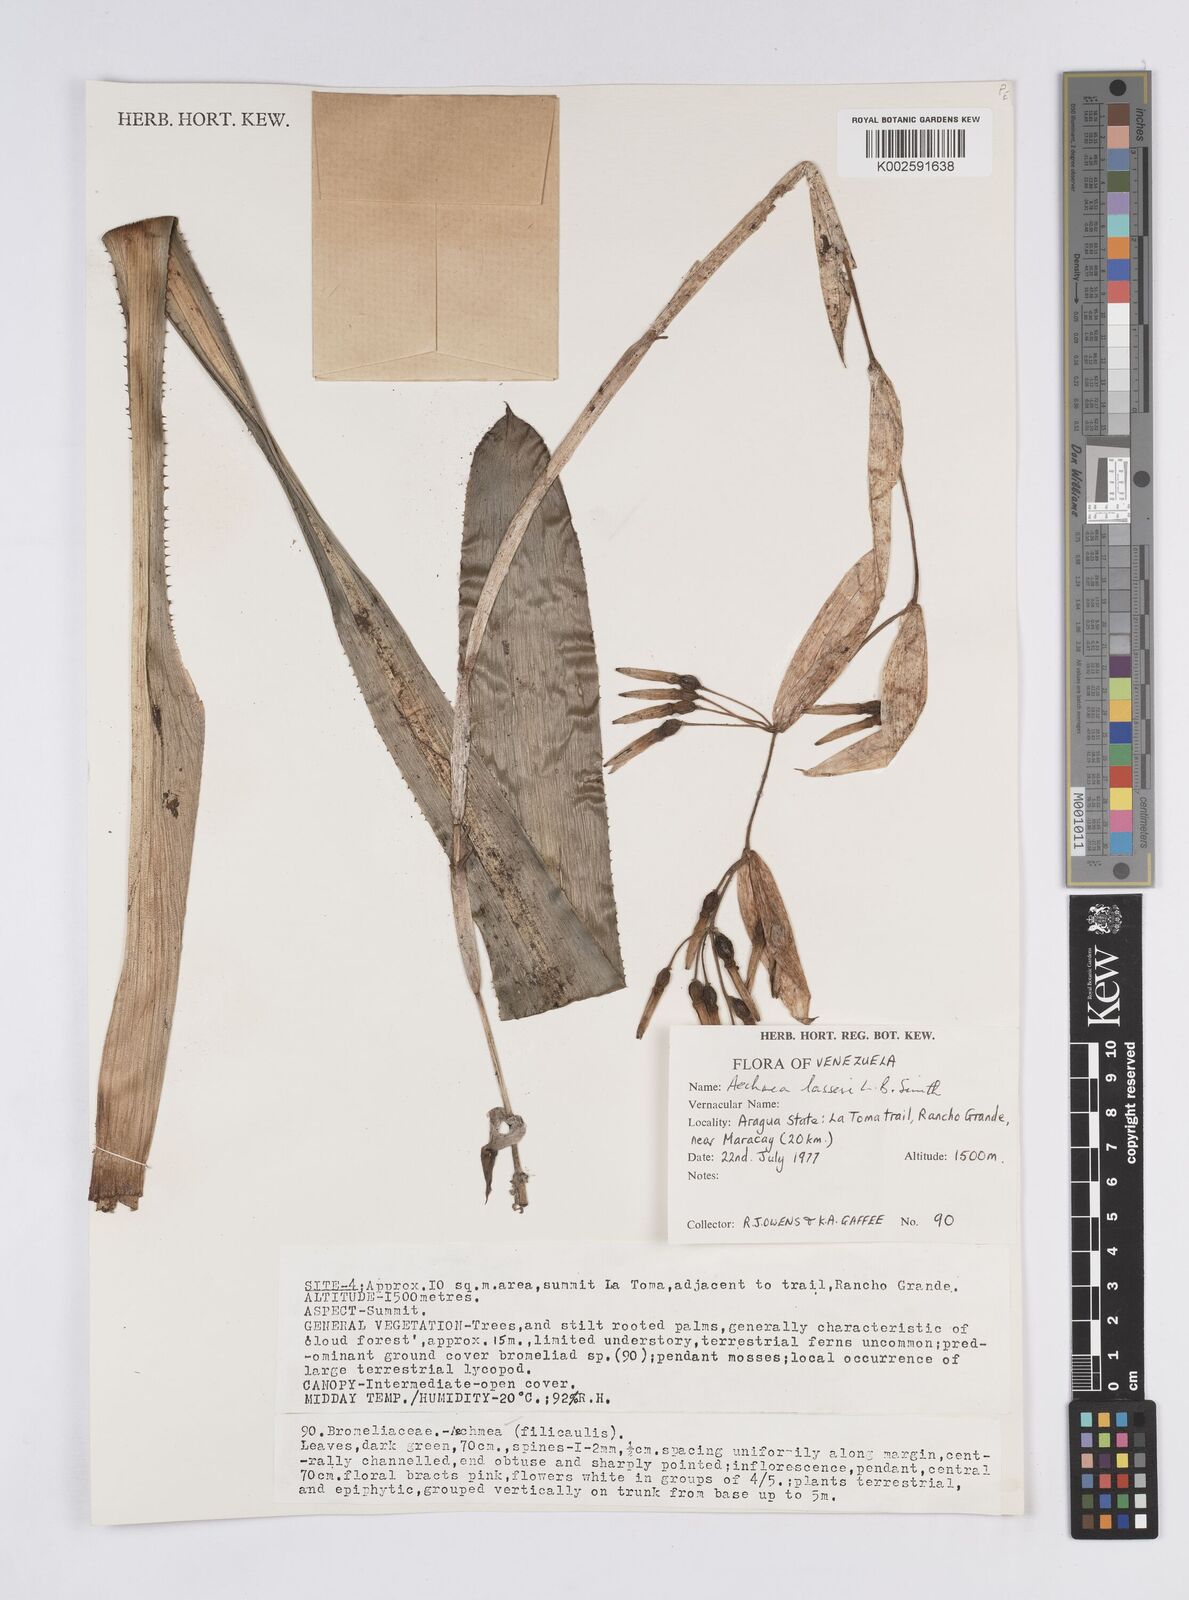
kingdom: Plantae
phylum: Tracheophyta
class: Liliopsida
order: Poales
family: Bromeliaceae
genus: Aechmea
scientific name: Aechmea lasseri
